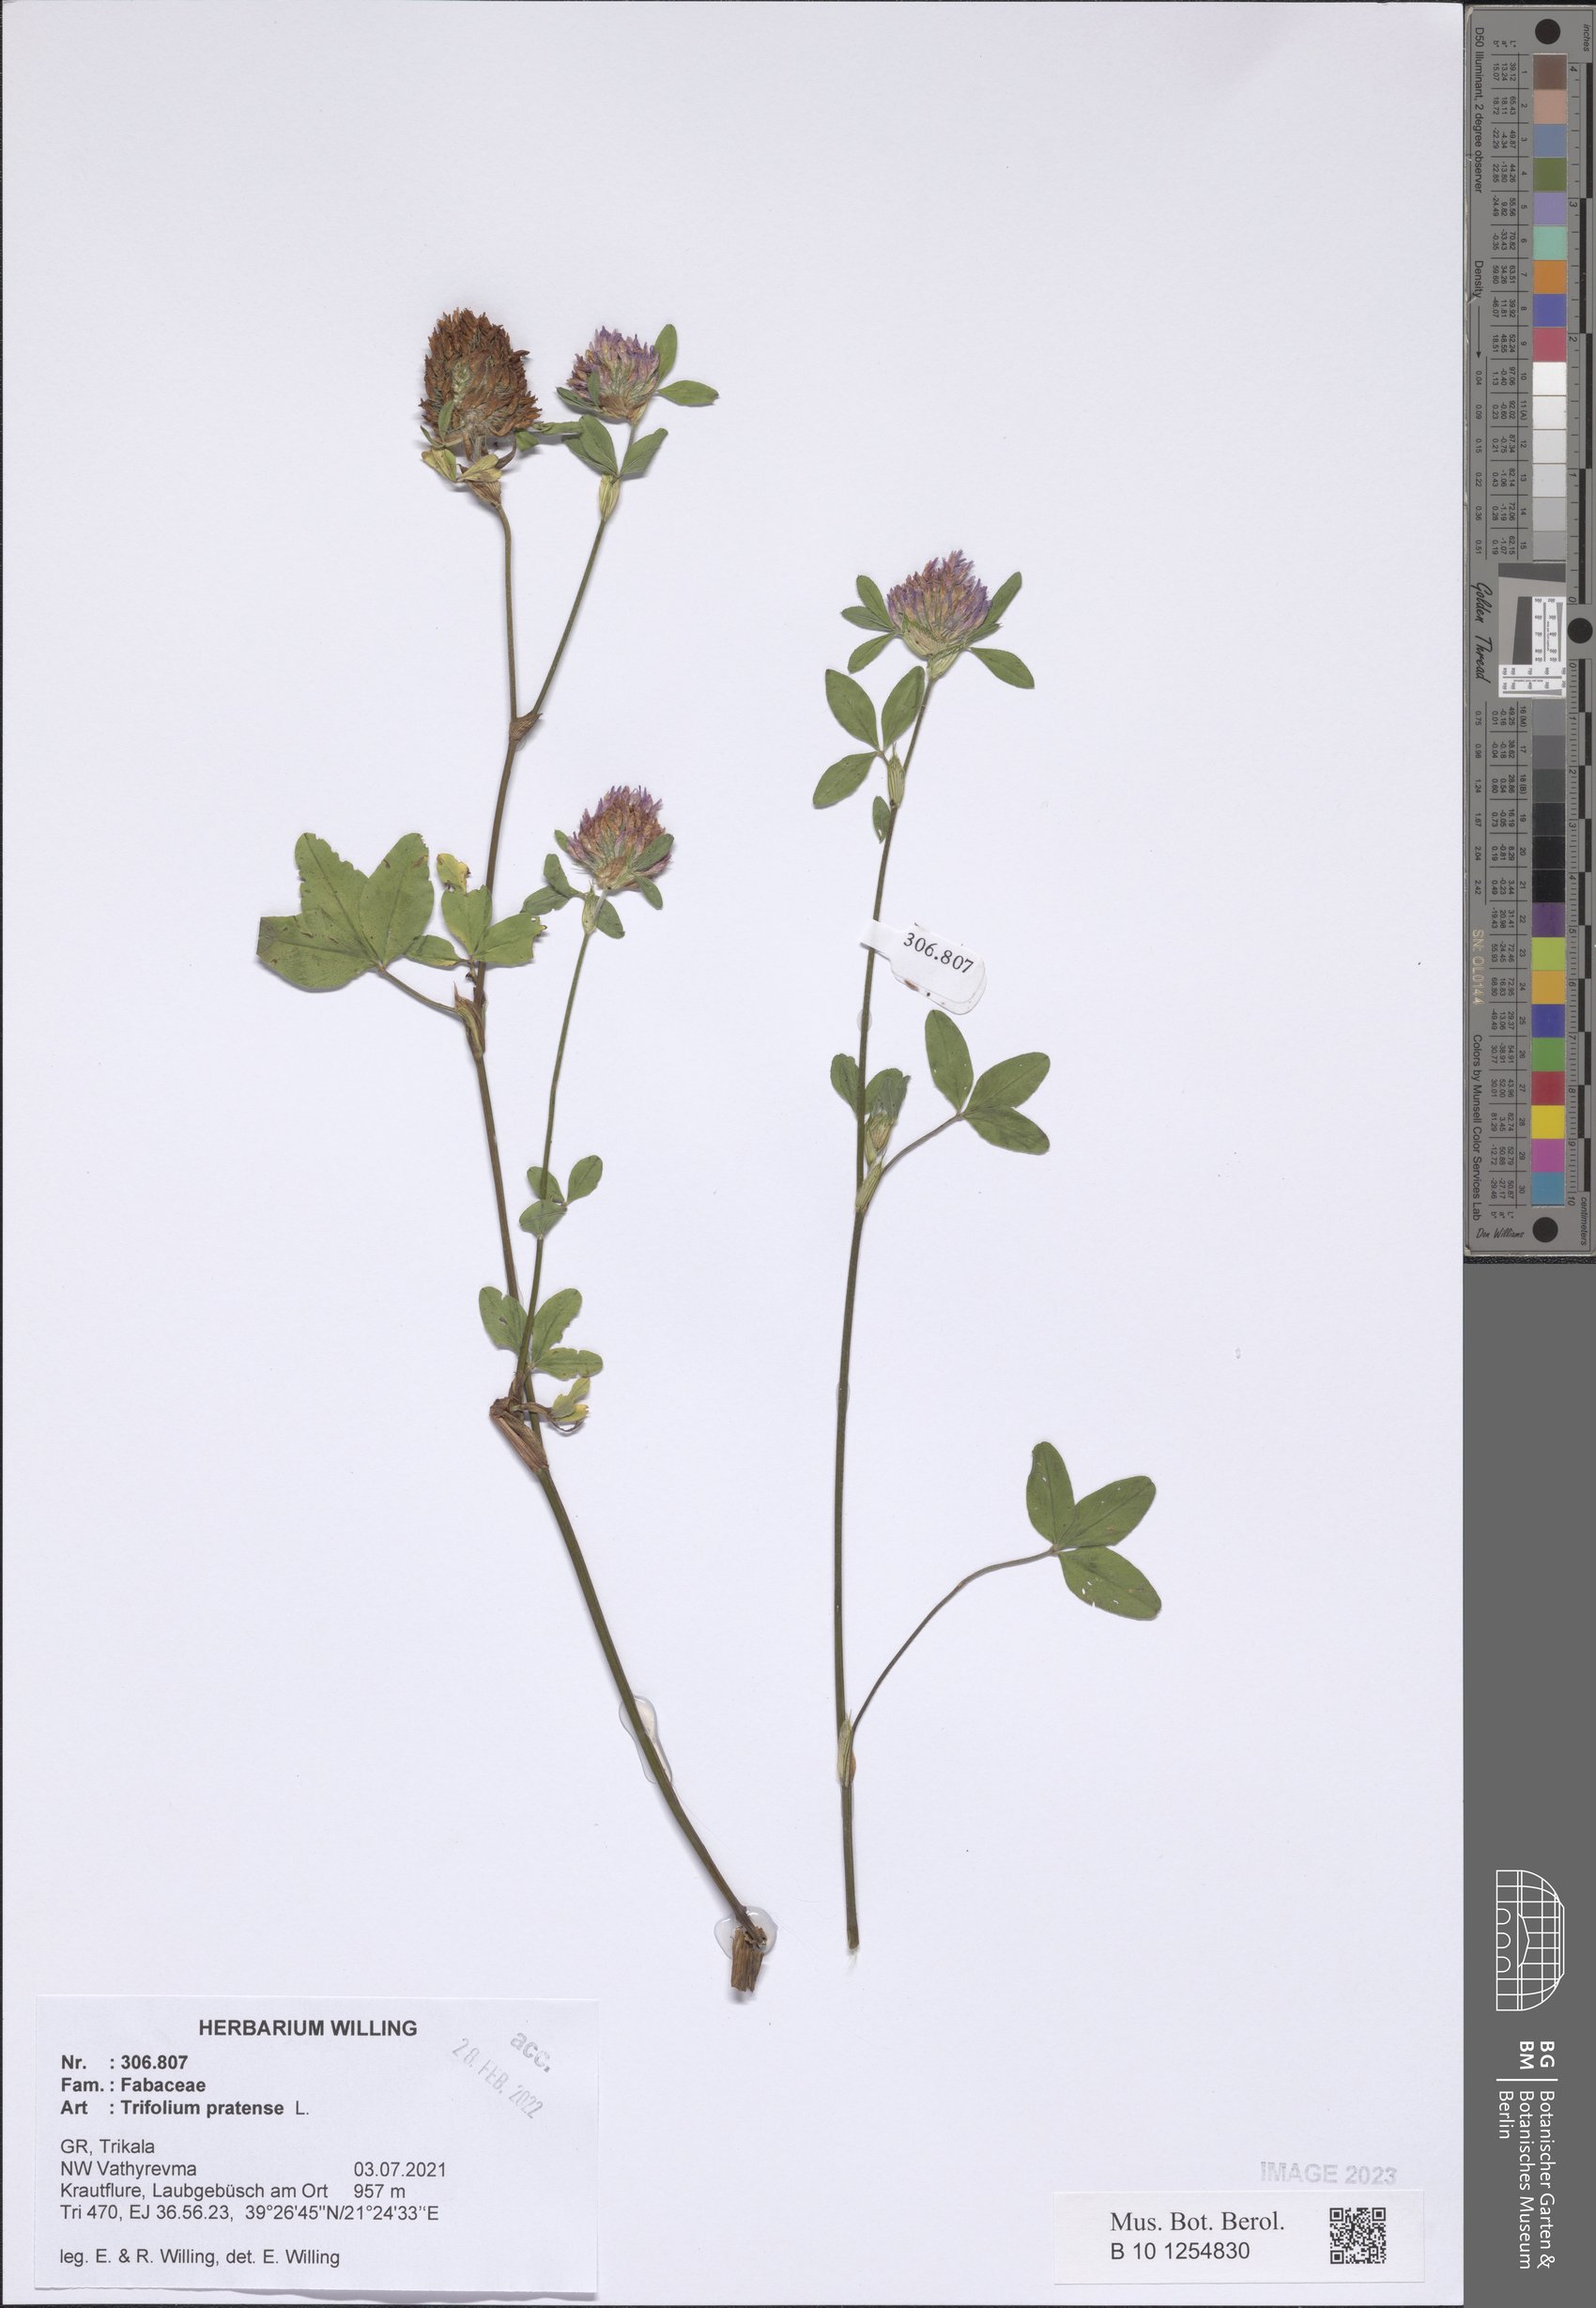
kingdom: Plantae
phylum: Tracheophyta
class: Magnoliopsida
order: Fabales
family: Fabaceae
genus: Trifolium
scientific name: Trifolium pratense
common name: Red clover
